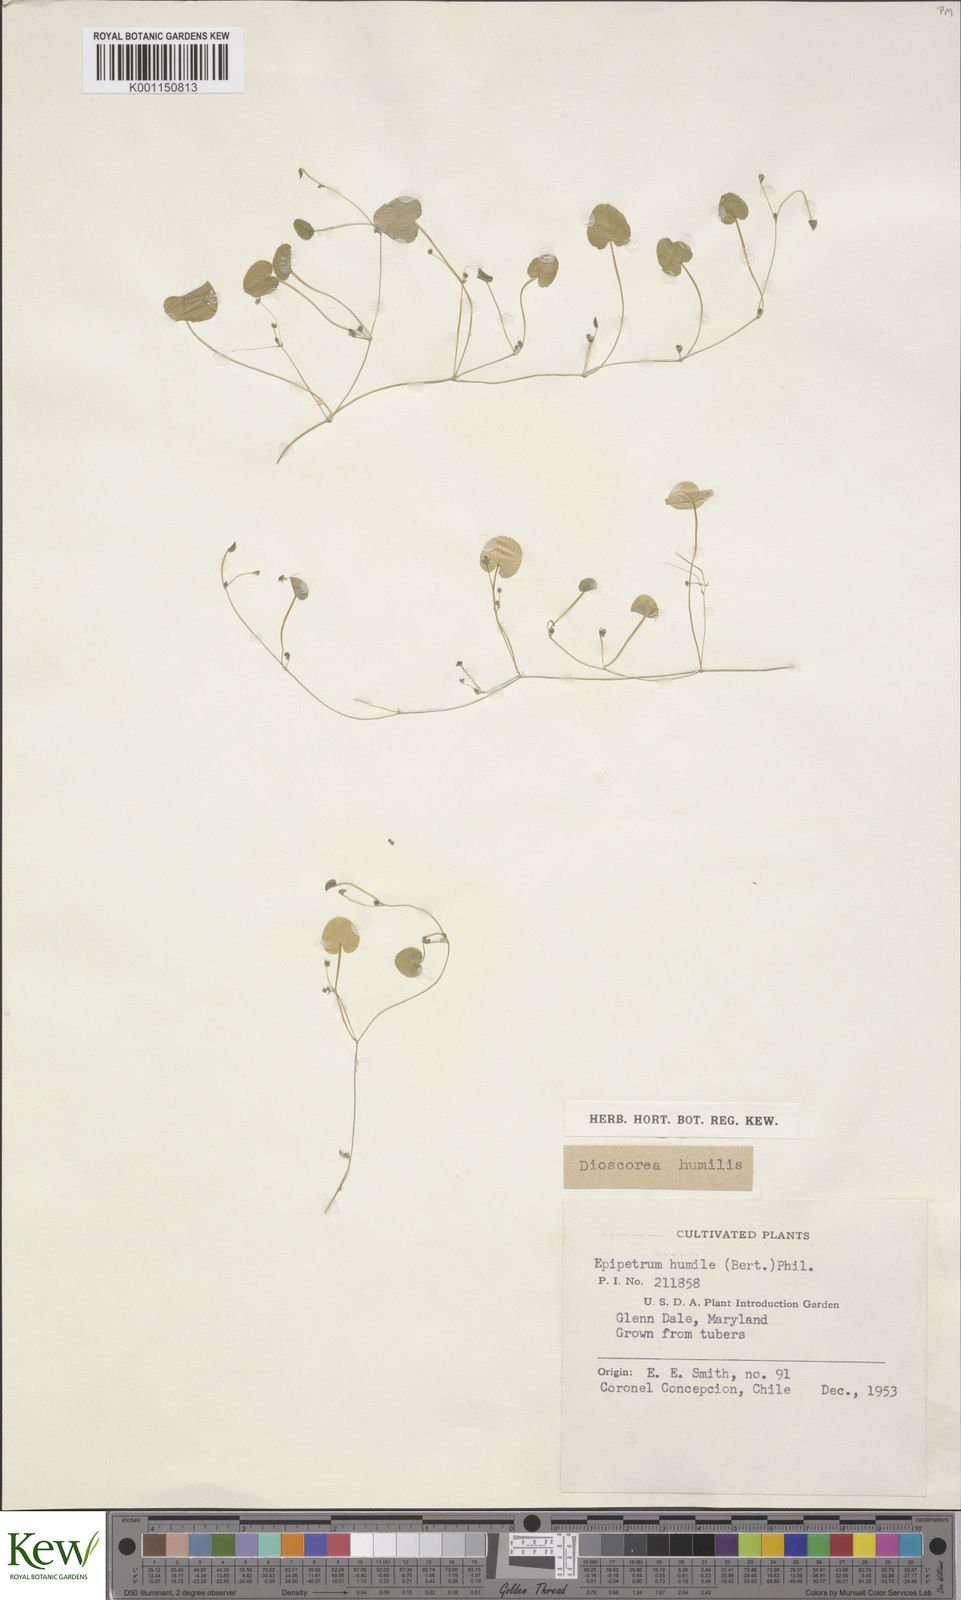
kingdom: Plantae
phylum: Tracheophyta
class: Liliopsida
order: Dioscoreales
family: Dioscoreaceae
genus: Dioscorea
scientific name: Dioscorea humilis
